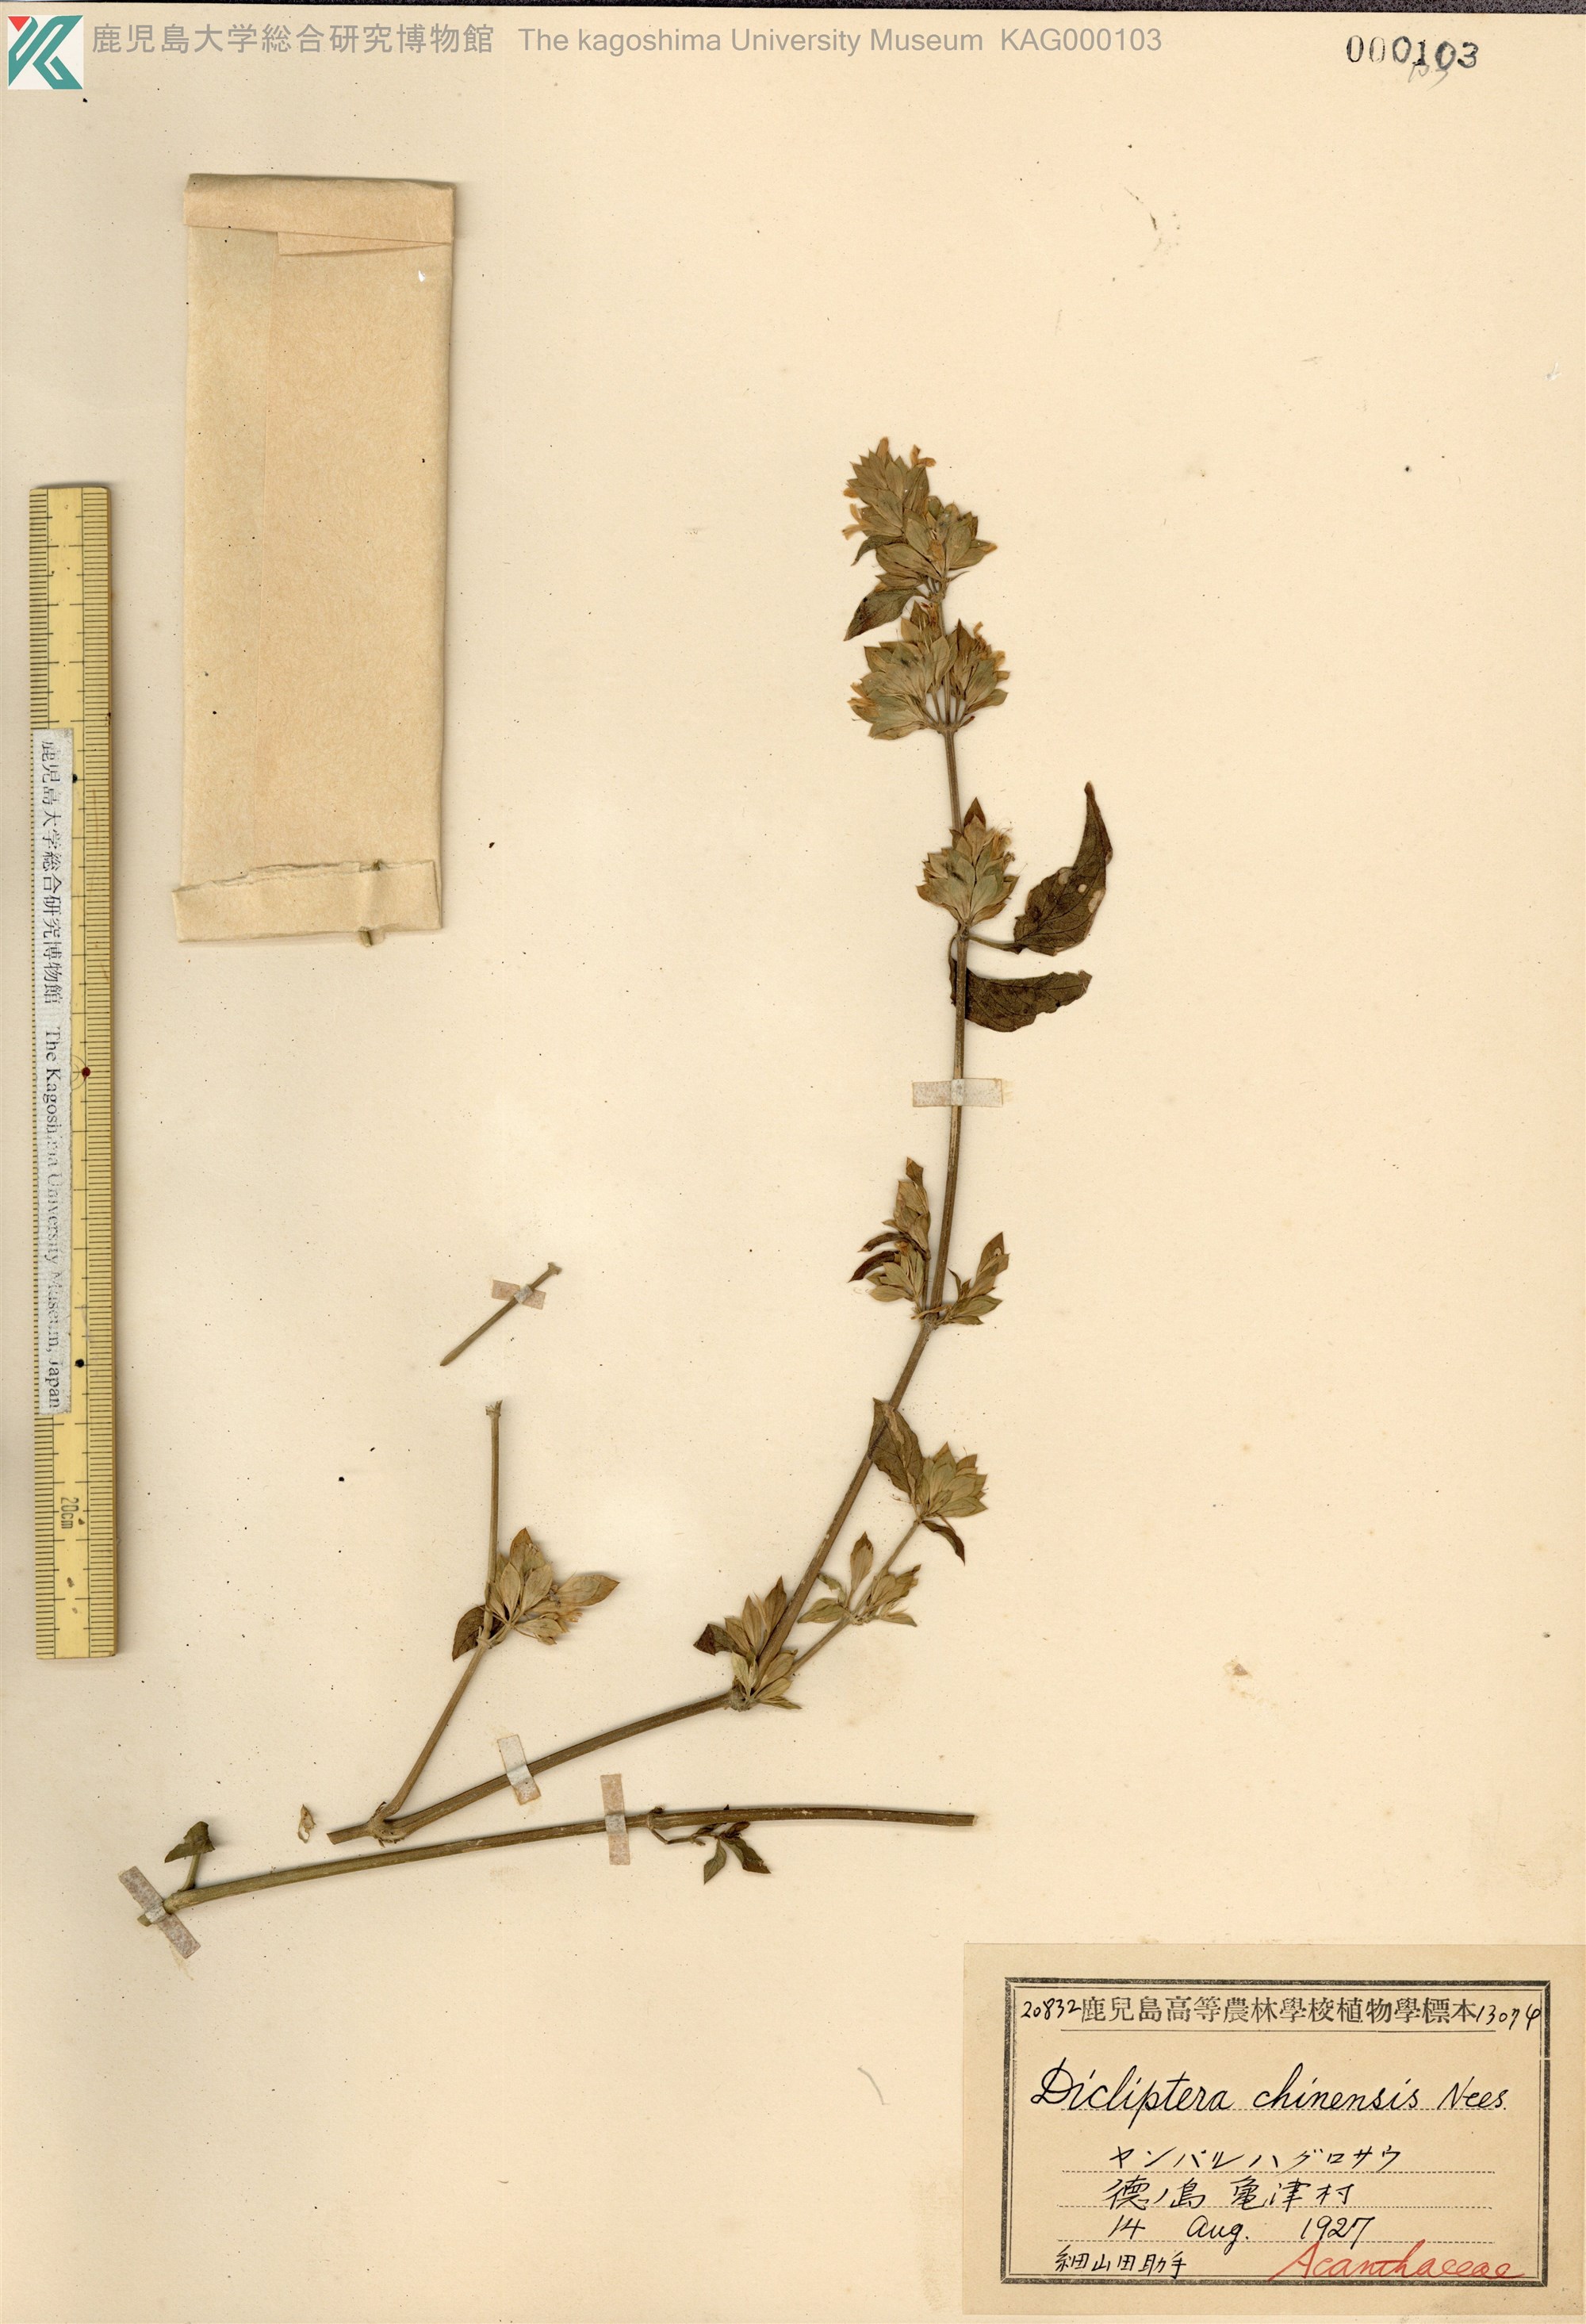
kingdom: Plantae
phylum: Tracheophyta
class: Magnoliopsida
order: Lamiales
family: Acanthaceae
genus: Dicliptera
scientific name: Dicliptera chinensis
